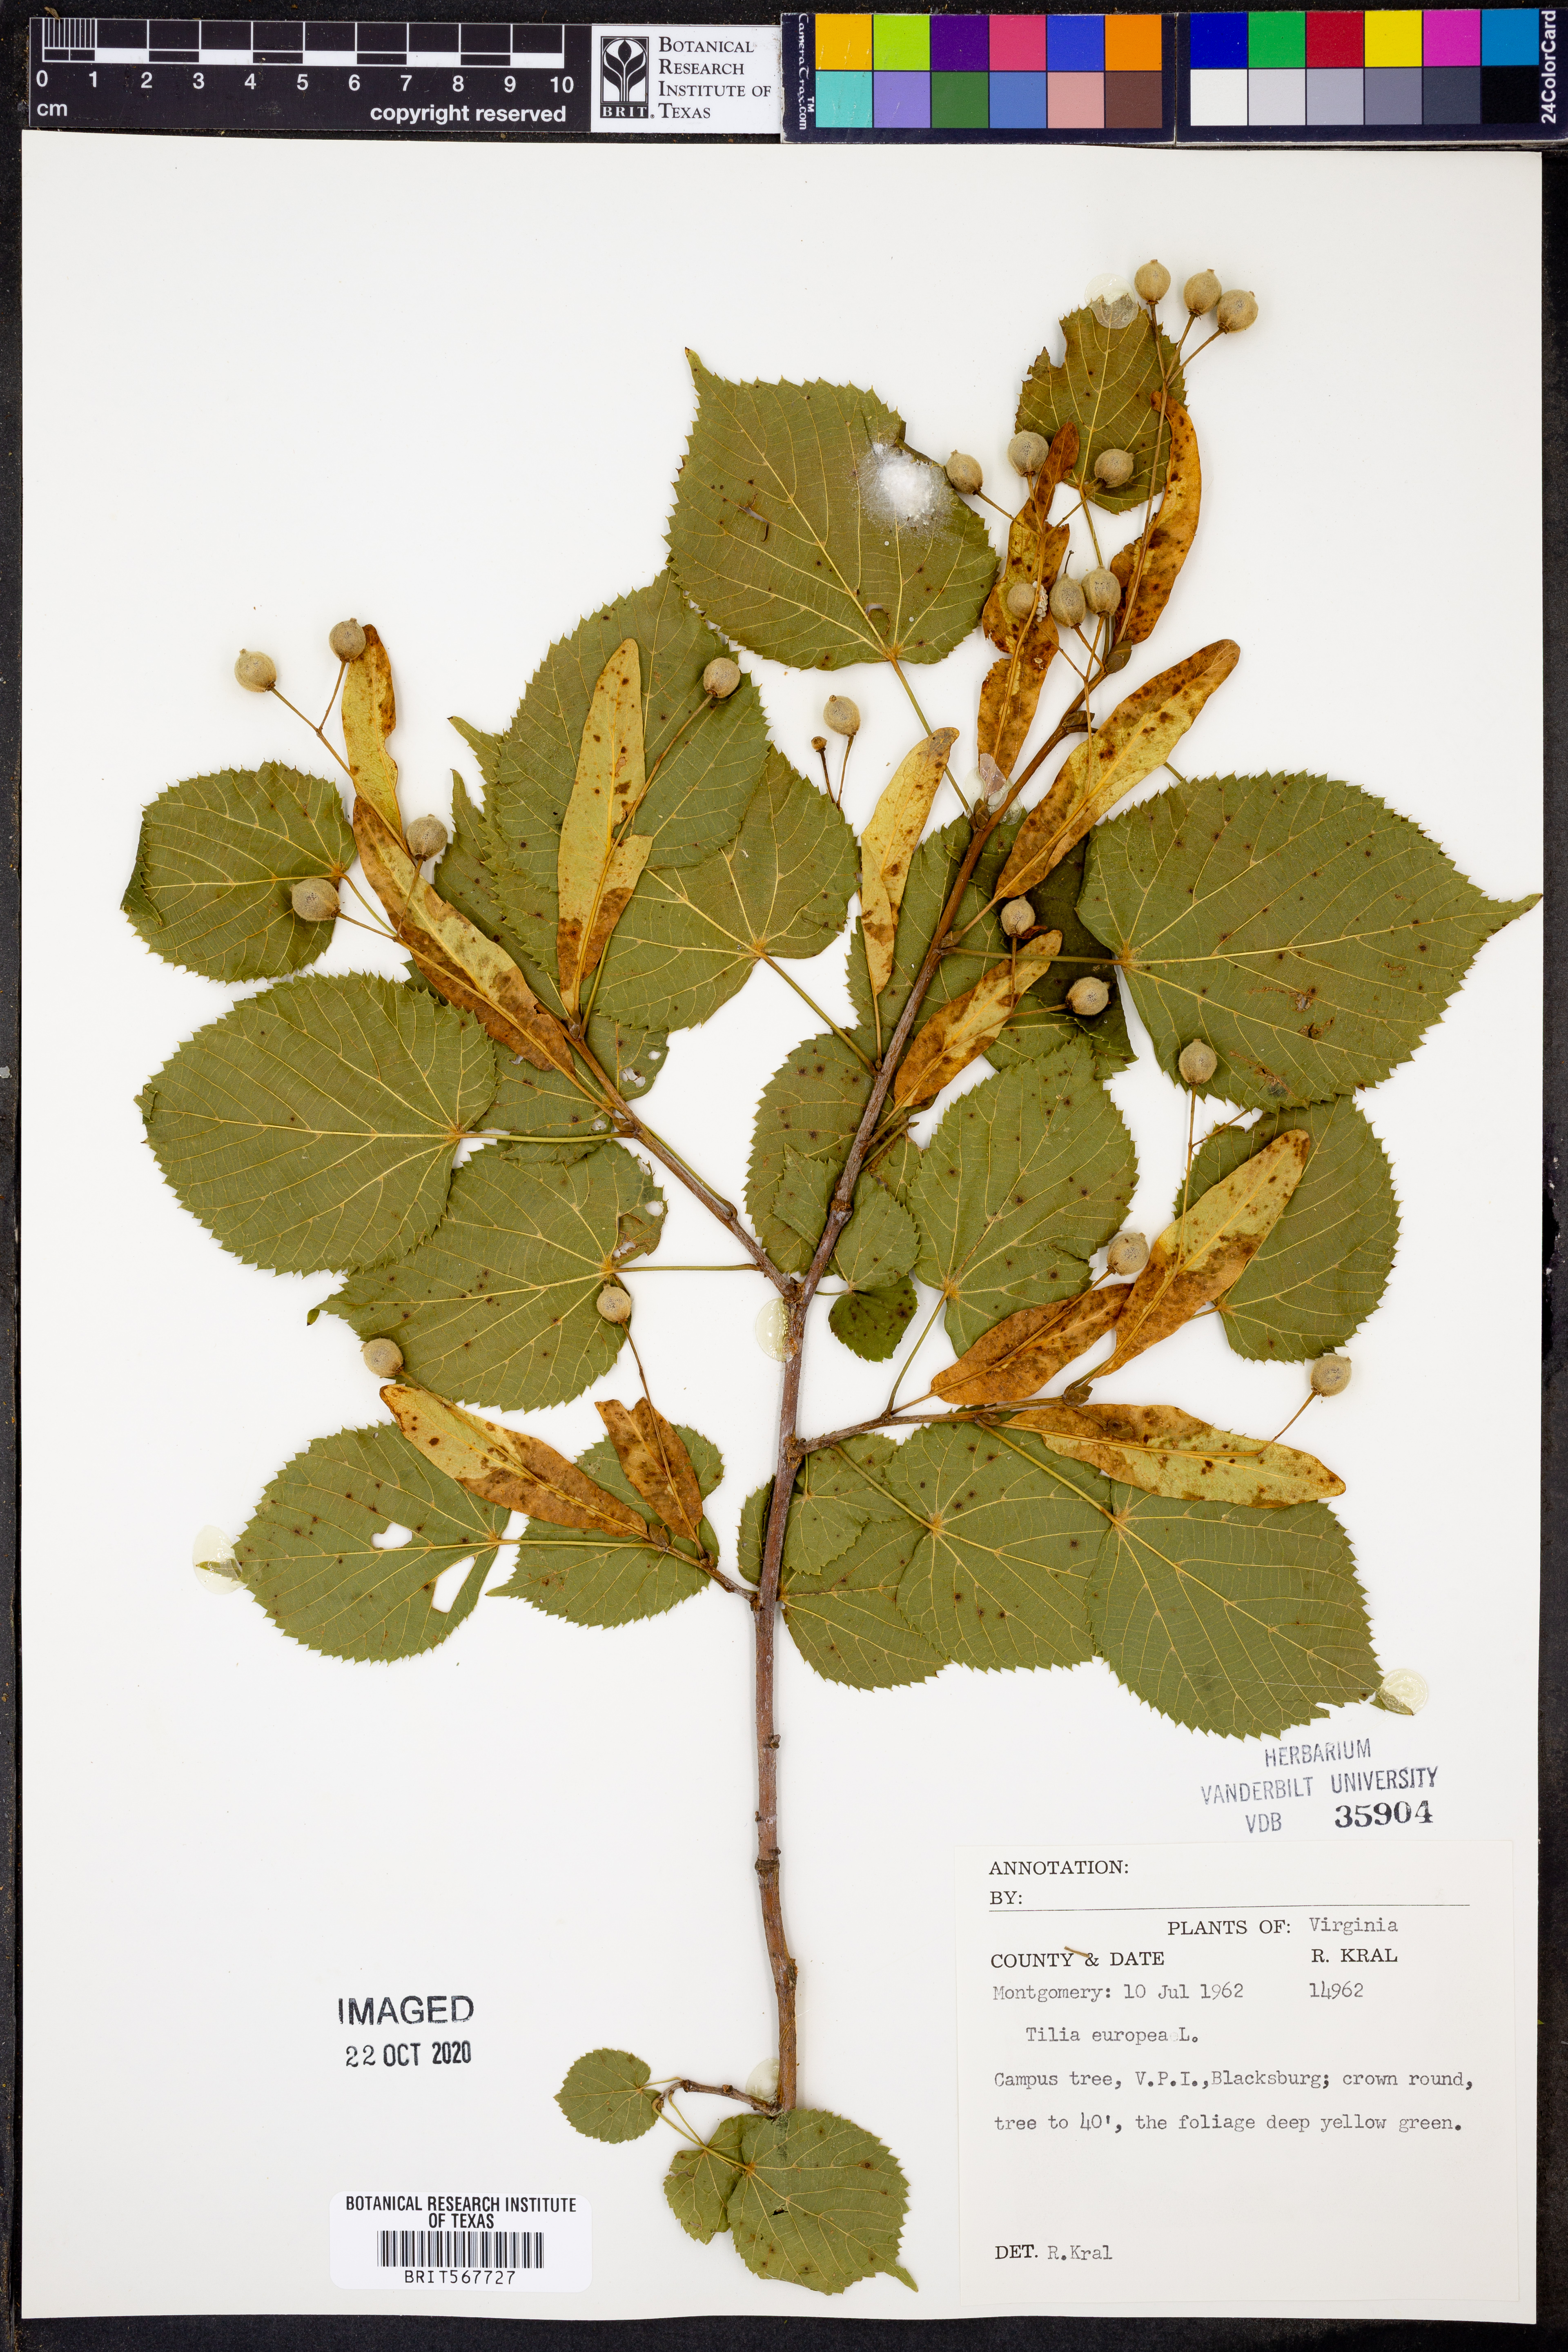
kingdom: Plantae
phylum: Tracheophyta
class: Magnoliopsida
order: Malvales
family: Malvaceae
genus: Tilia
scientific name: Tilia europaea
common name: European linden
